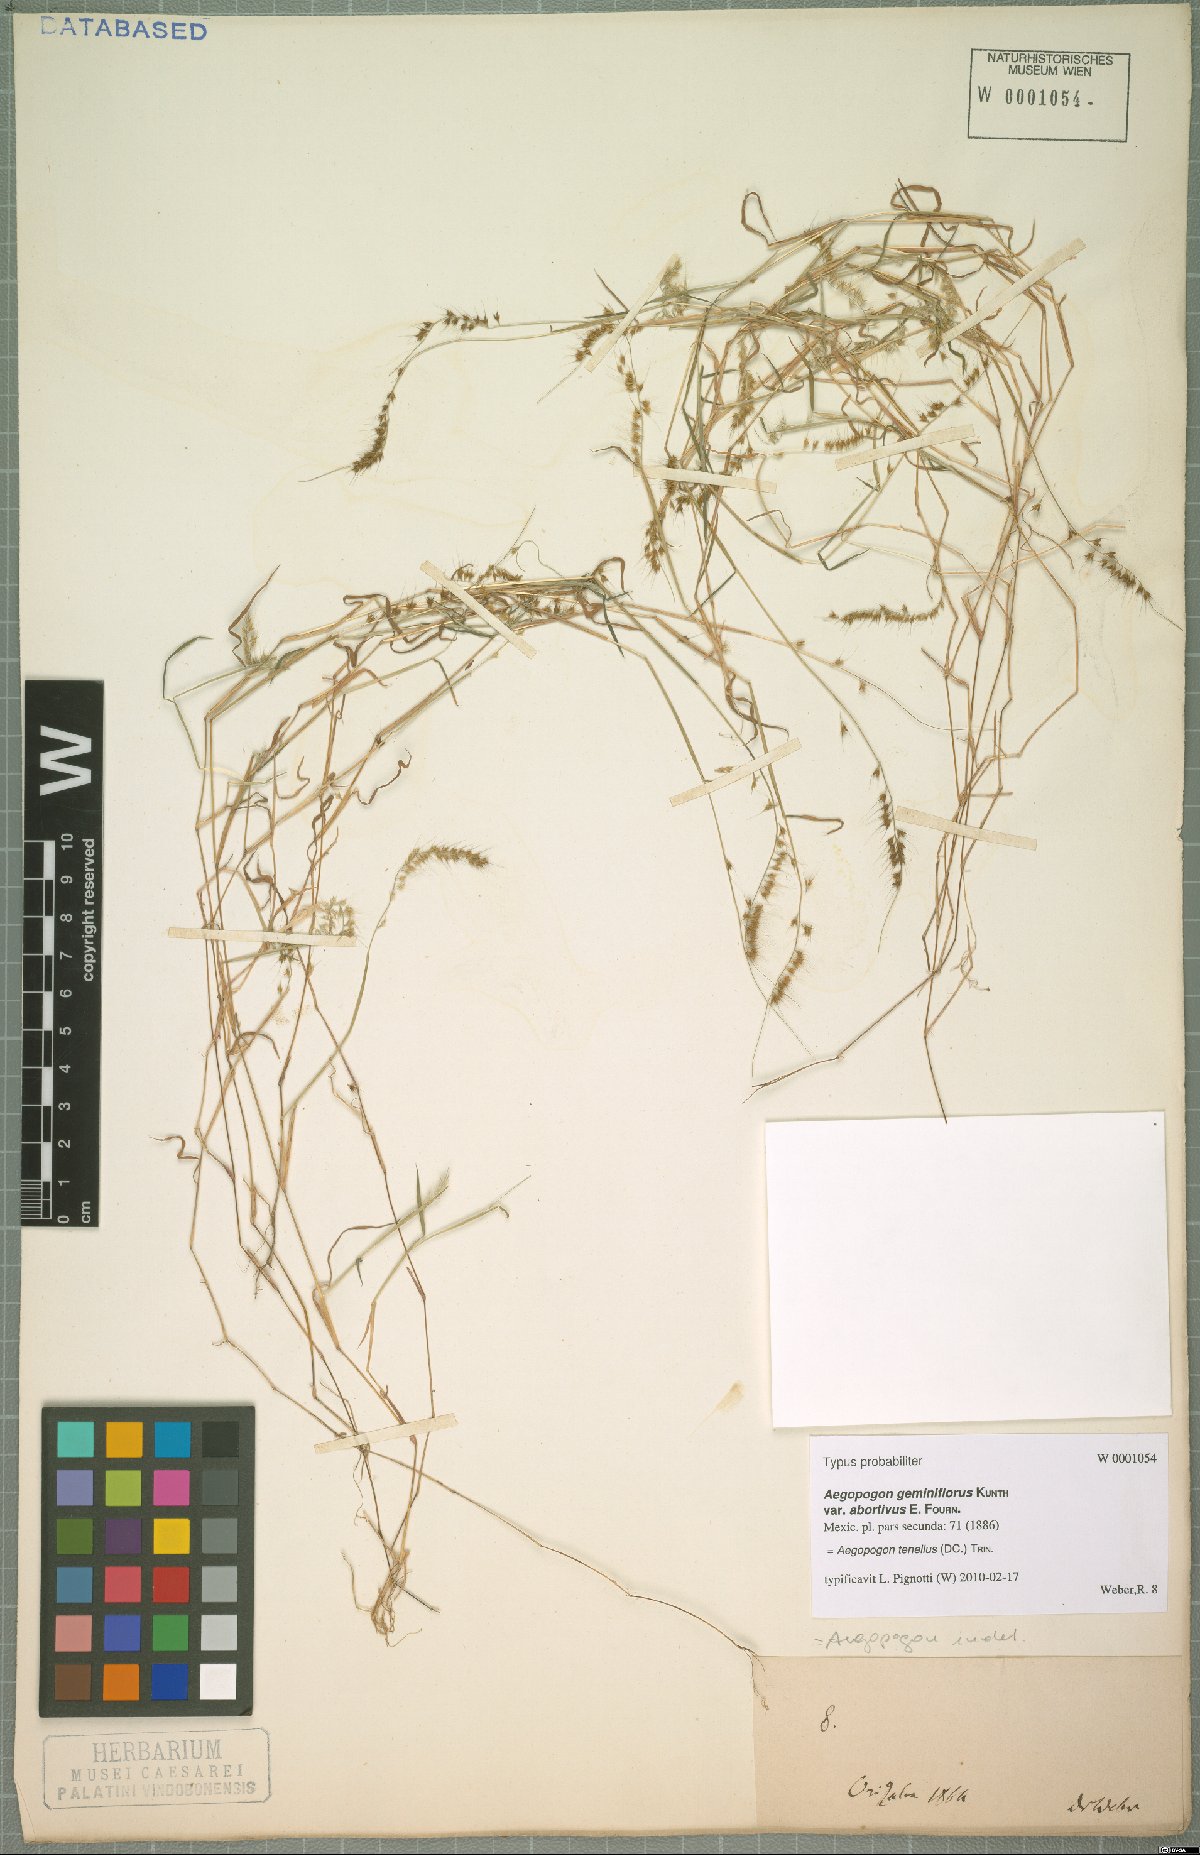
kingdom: Plantae
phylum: Tracheophyta
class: Liliopsida
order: Poales
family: Poaceae
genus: Muhlenbergia
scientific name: Muhlenbergia uniseta
